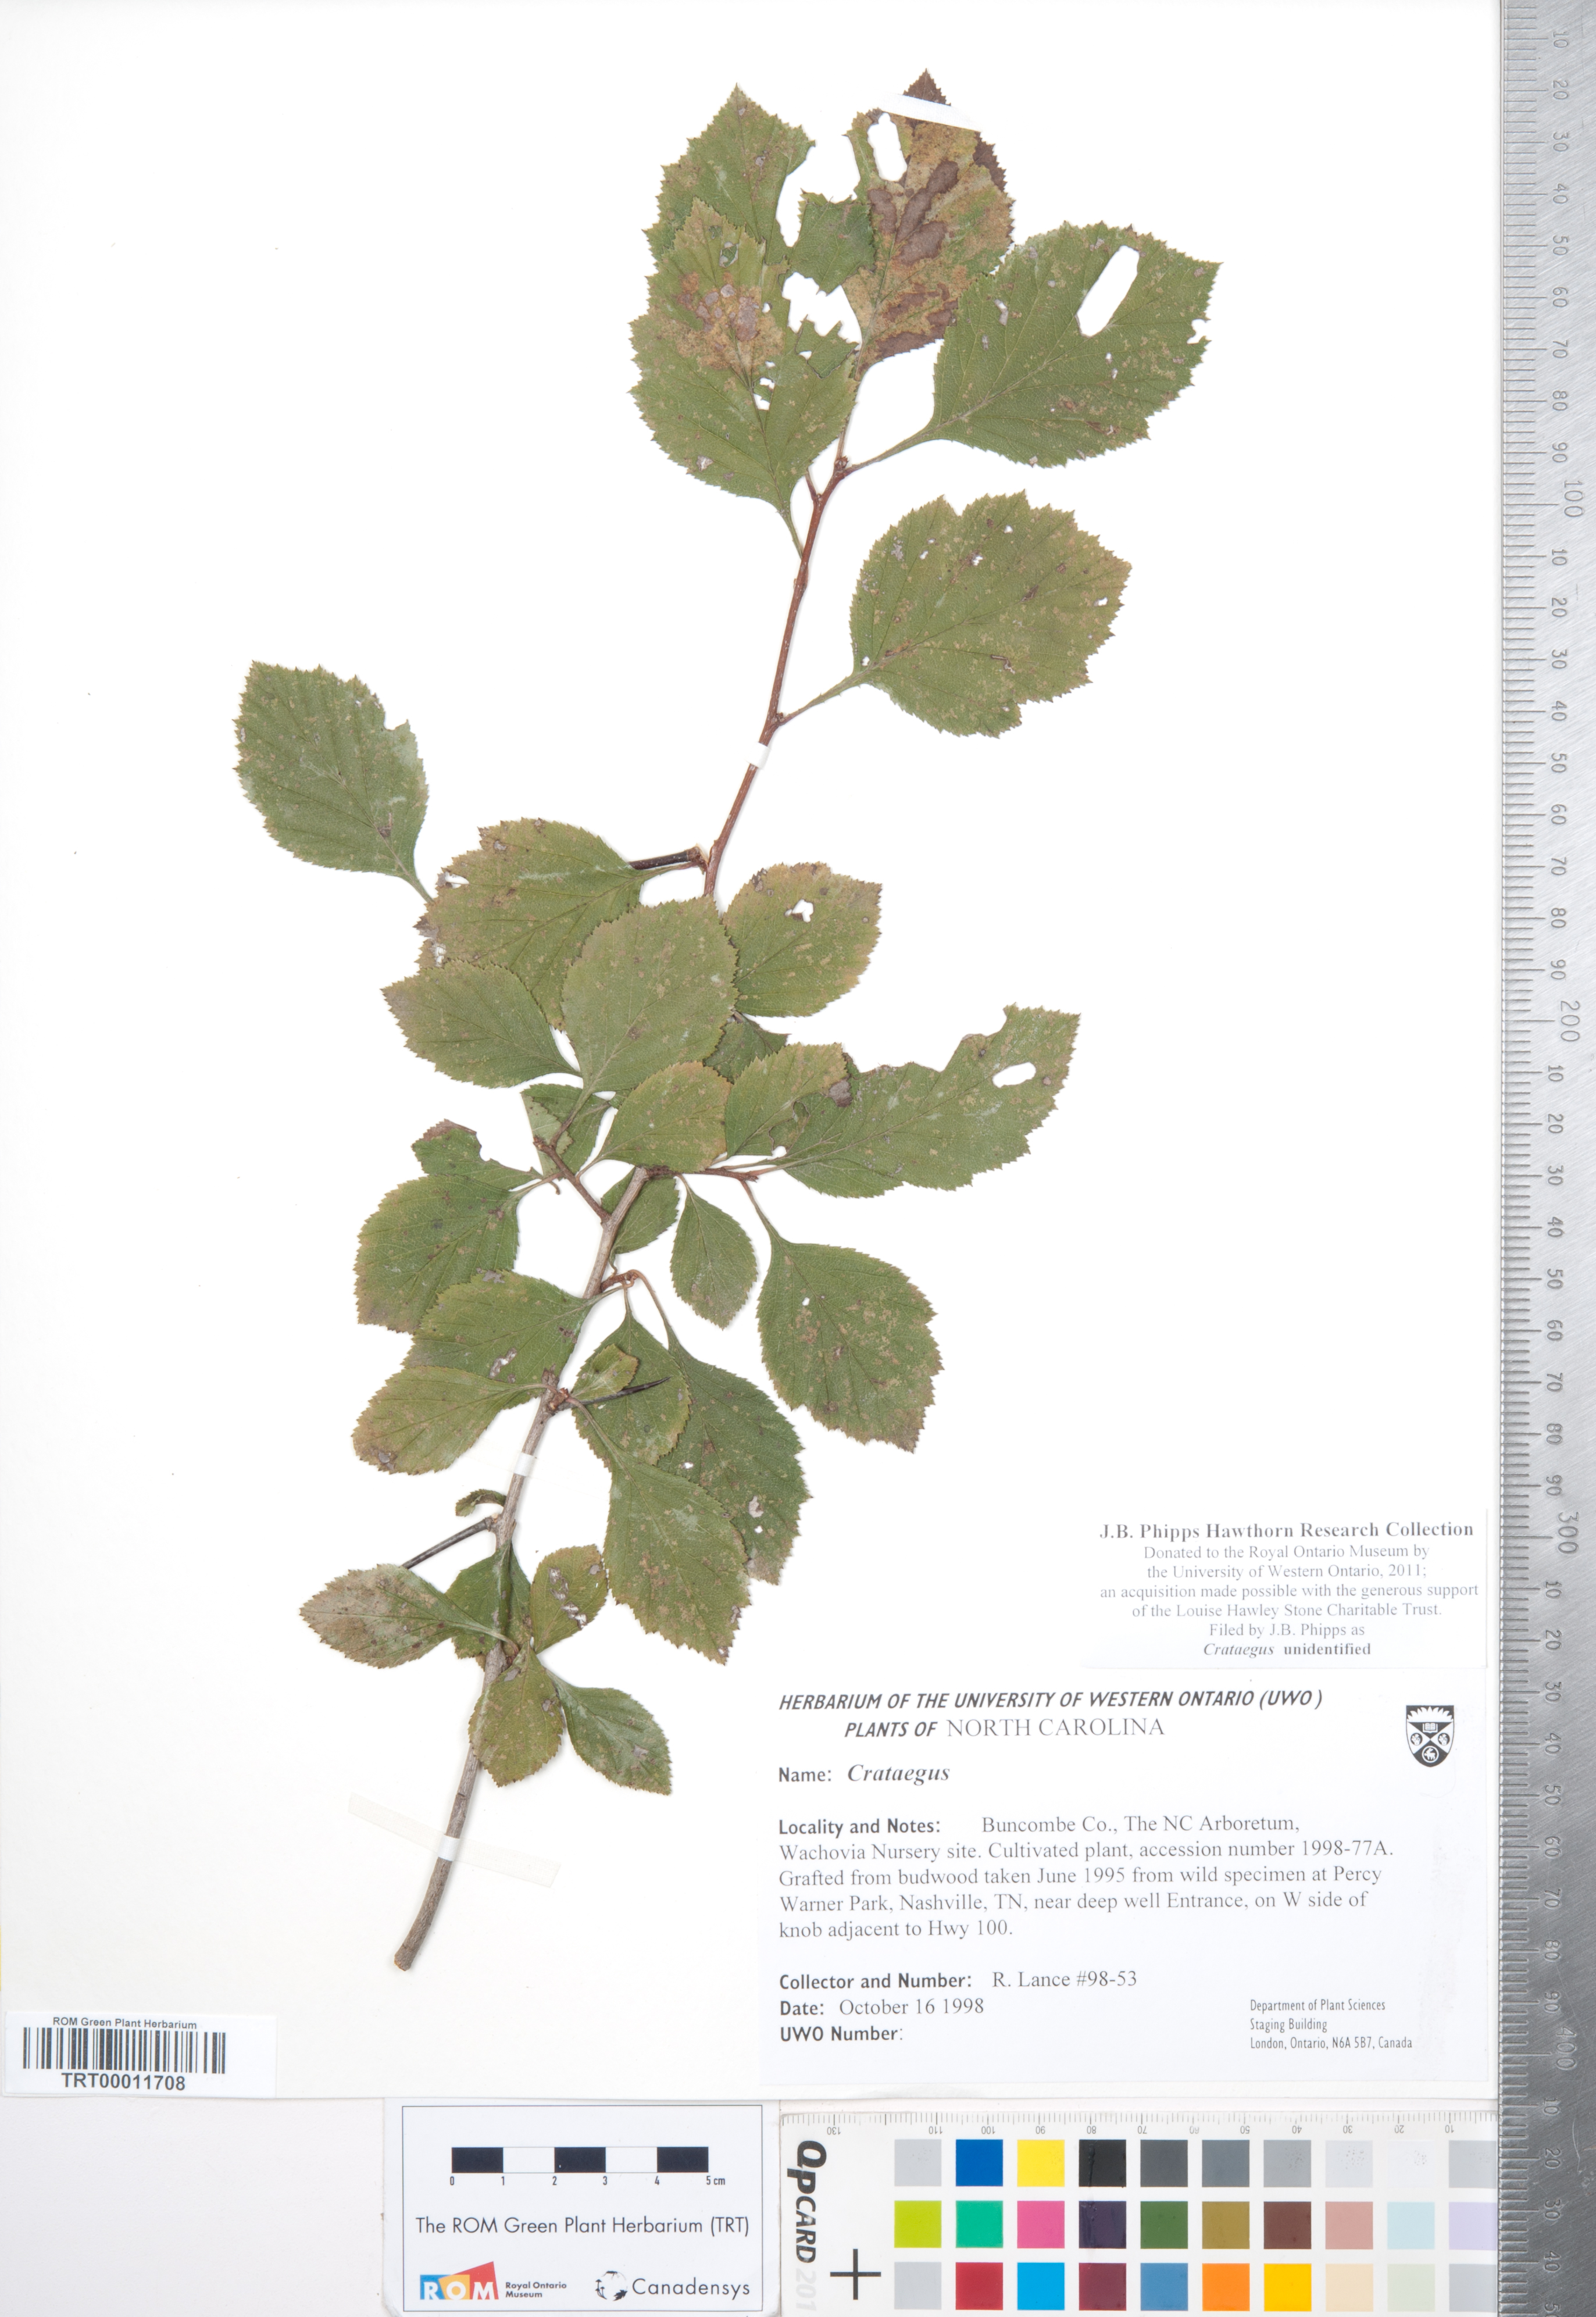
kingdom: Plantae
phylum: Tracheophyta
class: Magnoliopsida
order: Rosales
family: Rosaceae
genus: Crataegus
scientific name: Crataegus
